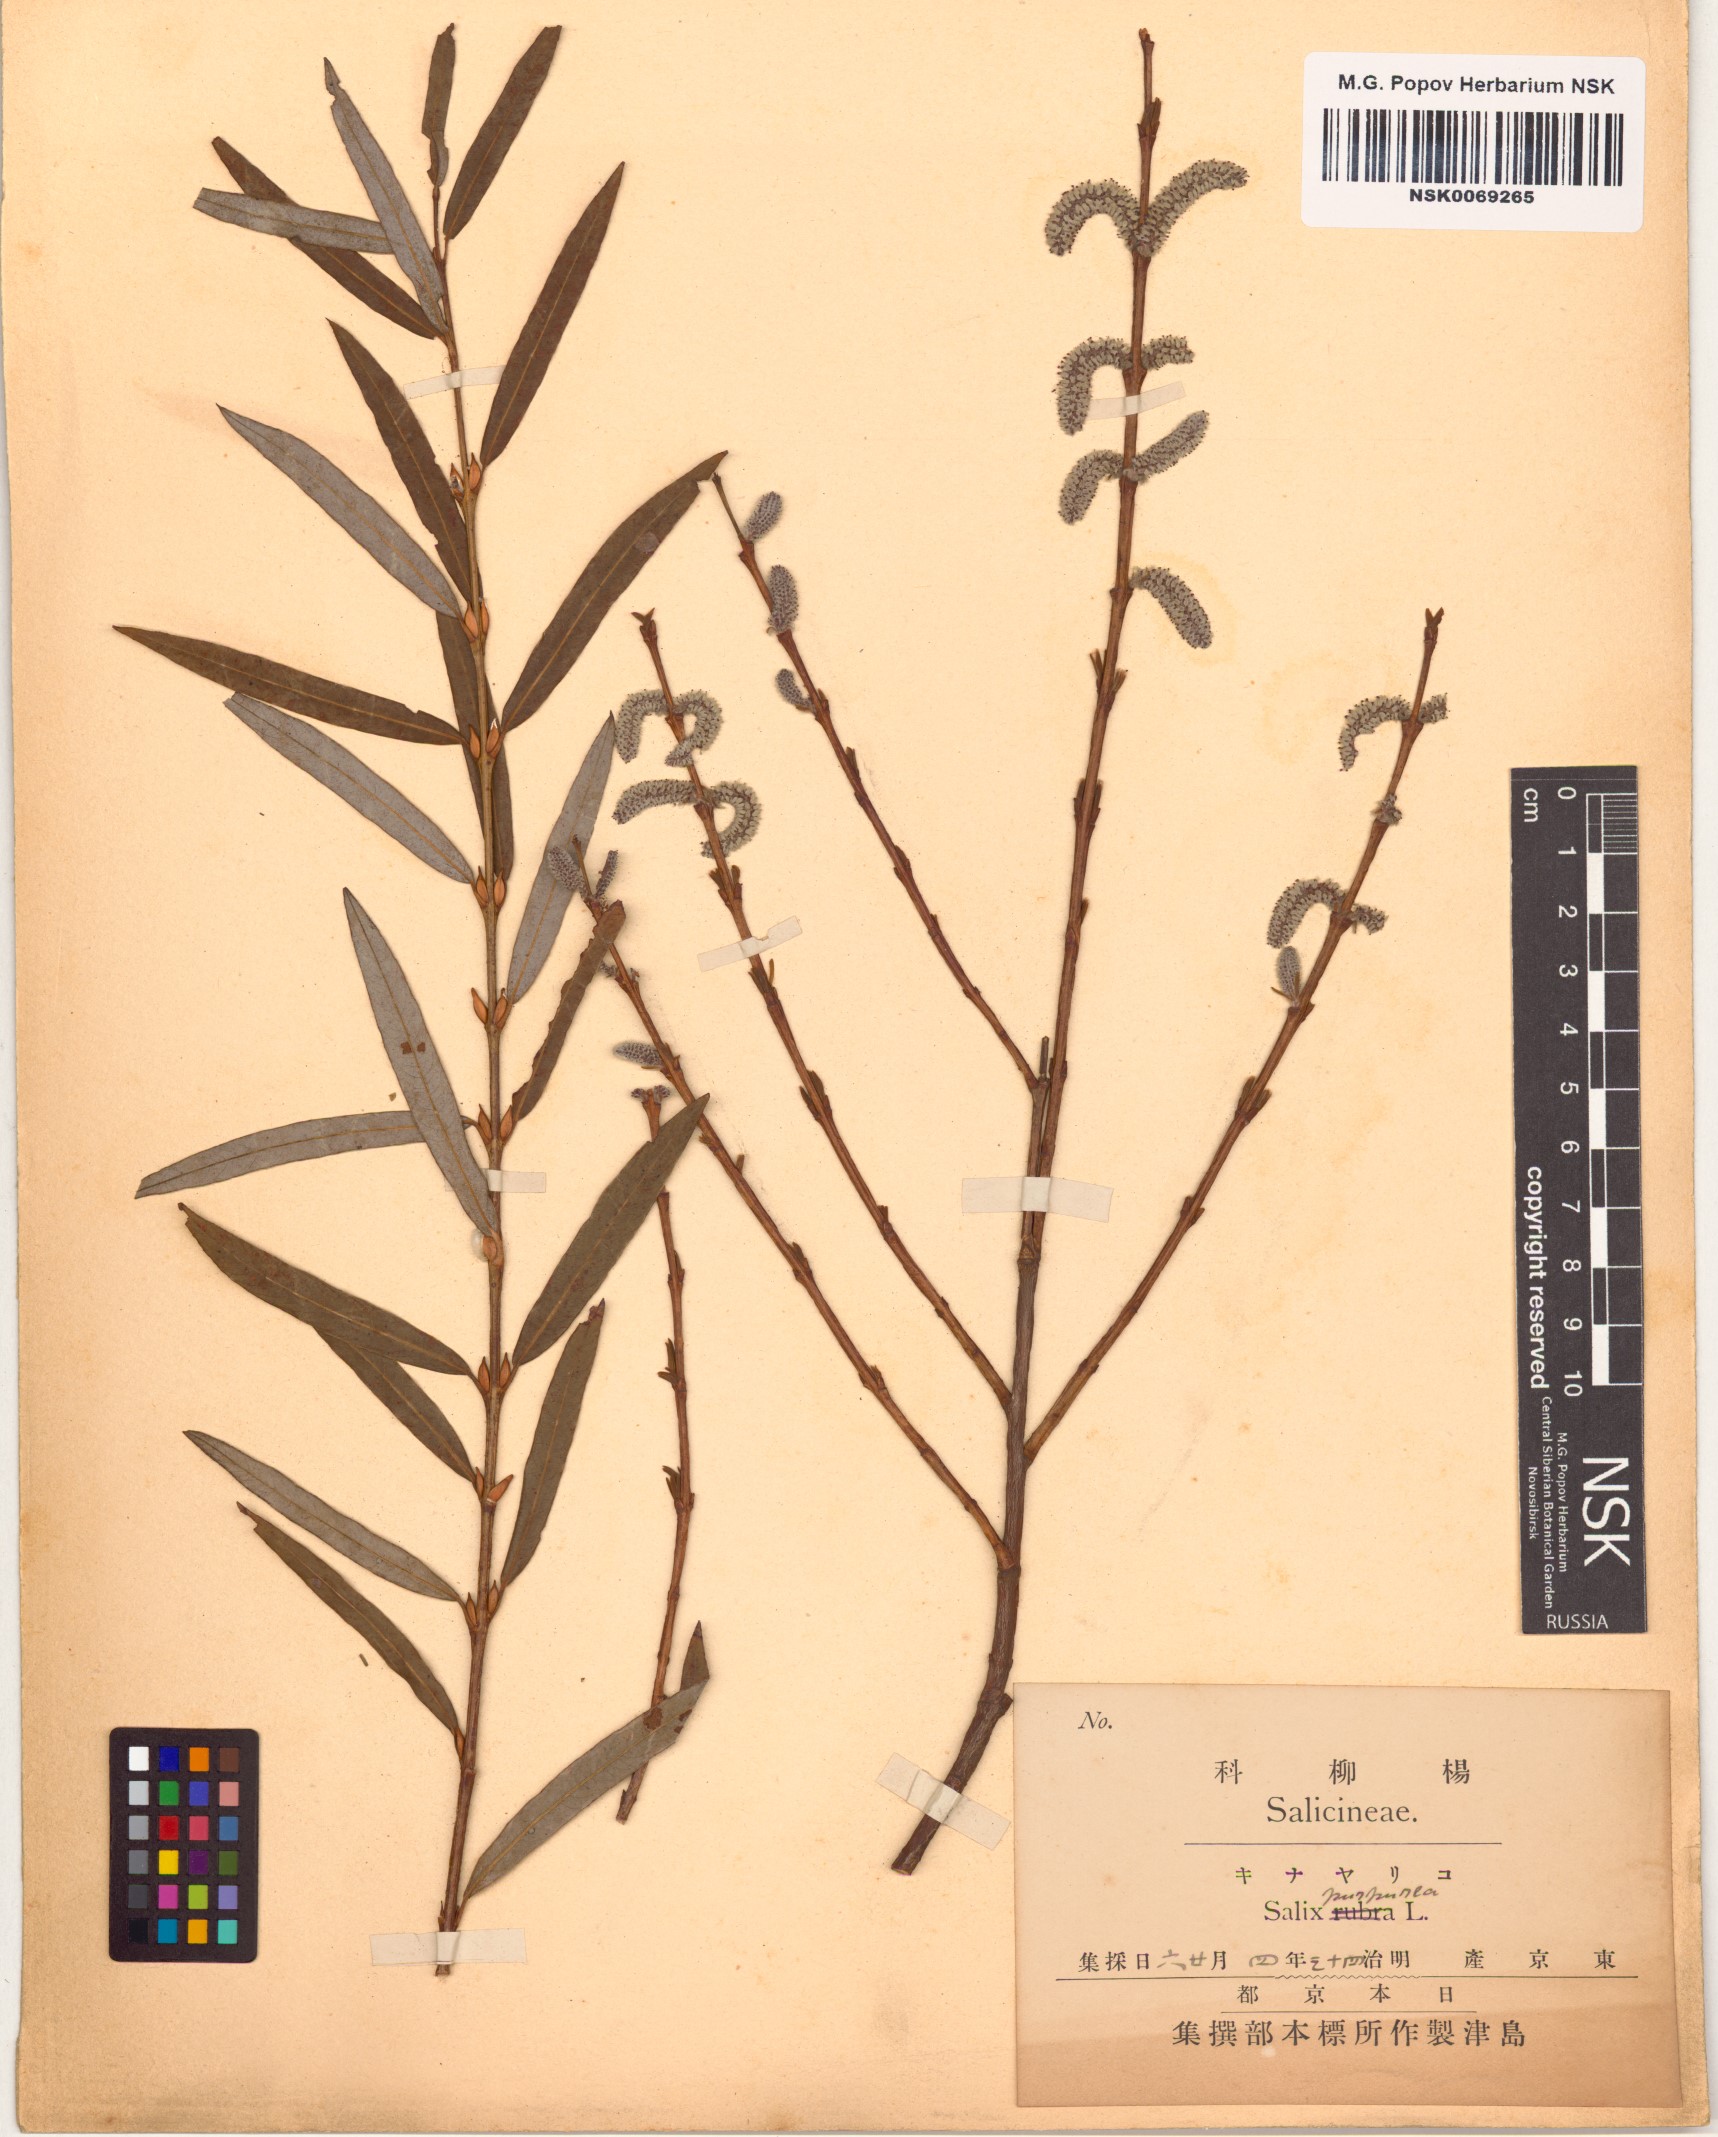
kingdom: Plantae
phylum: Tracheophyta
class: Magnoliopsida
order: Malpighiales
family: Salicaceae
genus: Salix
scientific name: Salix purpurea
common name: Purple willow
